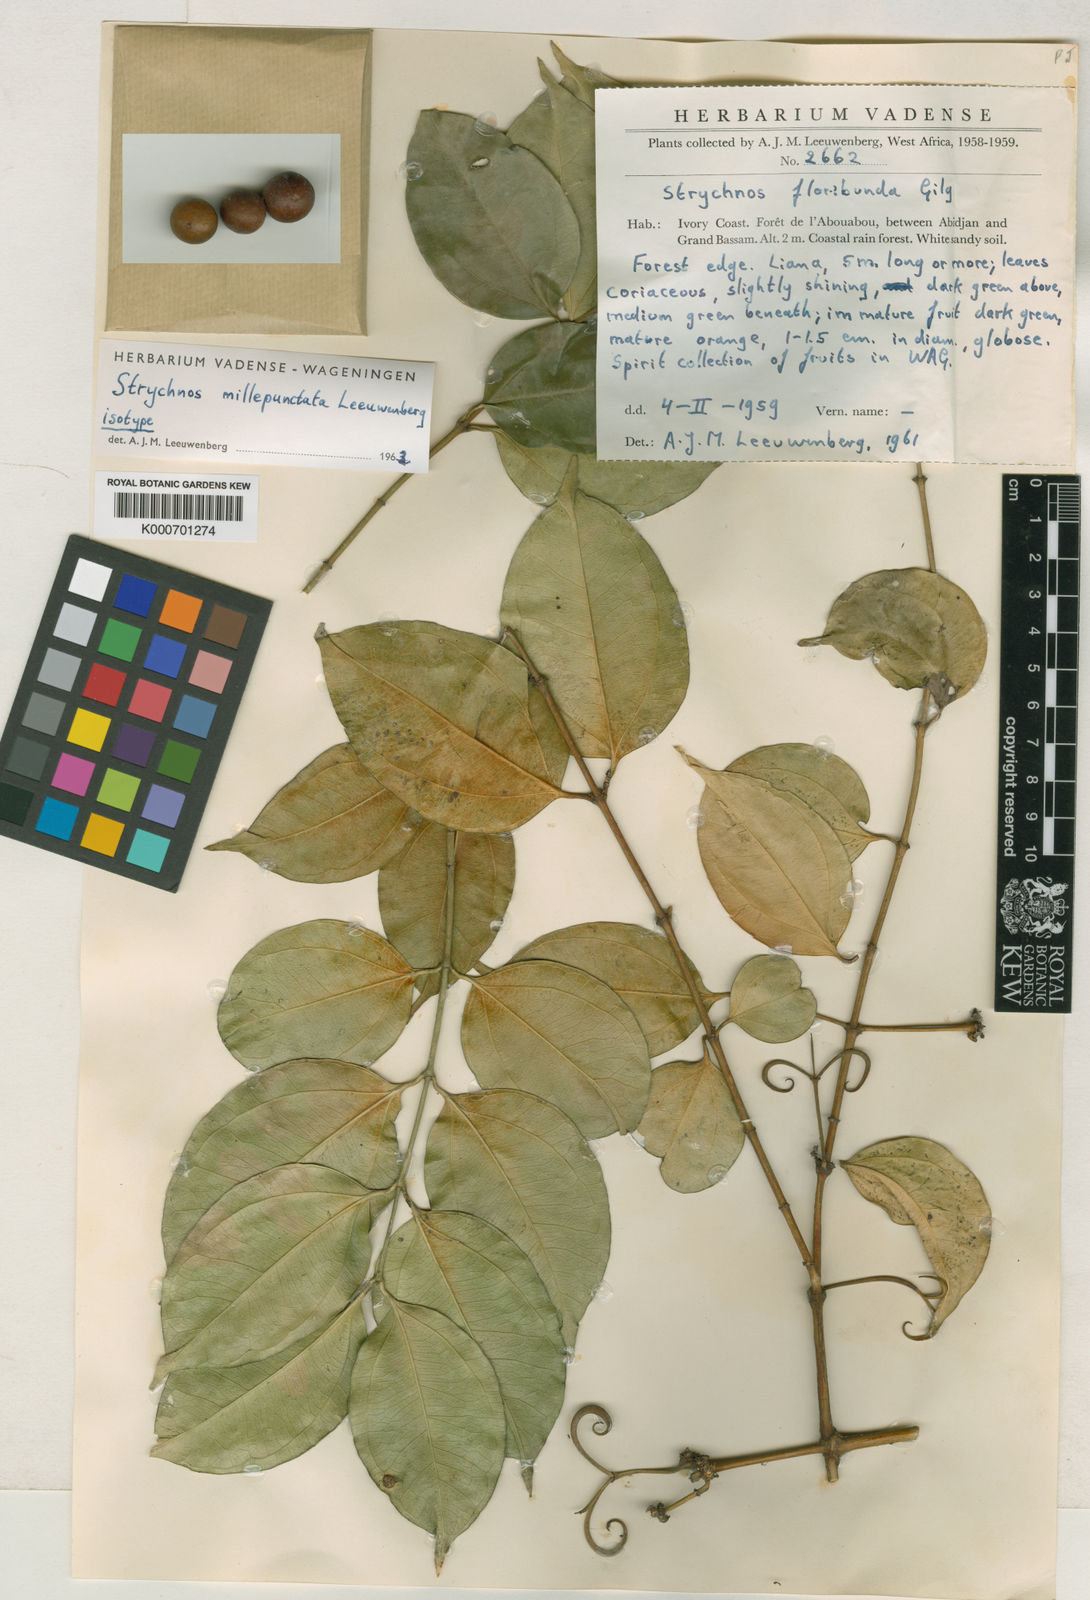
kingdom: Plantae
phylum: Tracheophyta
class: Magnoliopsida
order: Gentianales
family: Loganiaceae
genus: Strychnos
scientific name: Strychnos millepunctata
